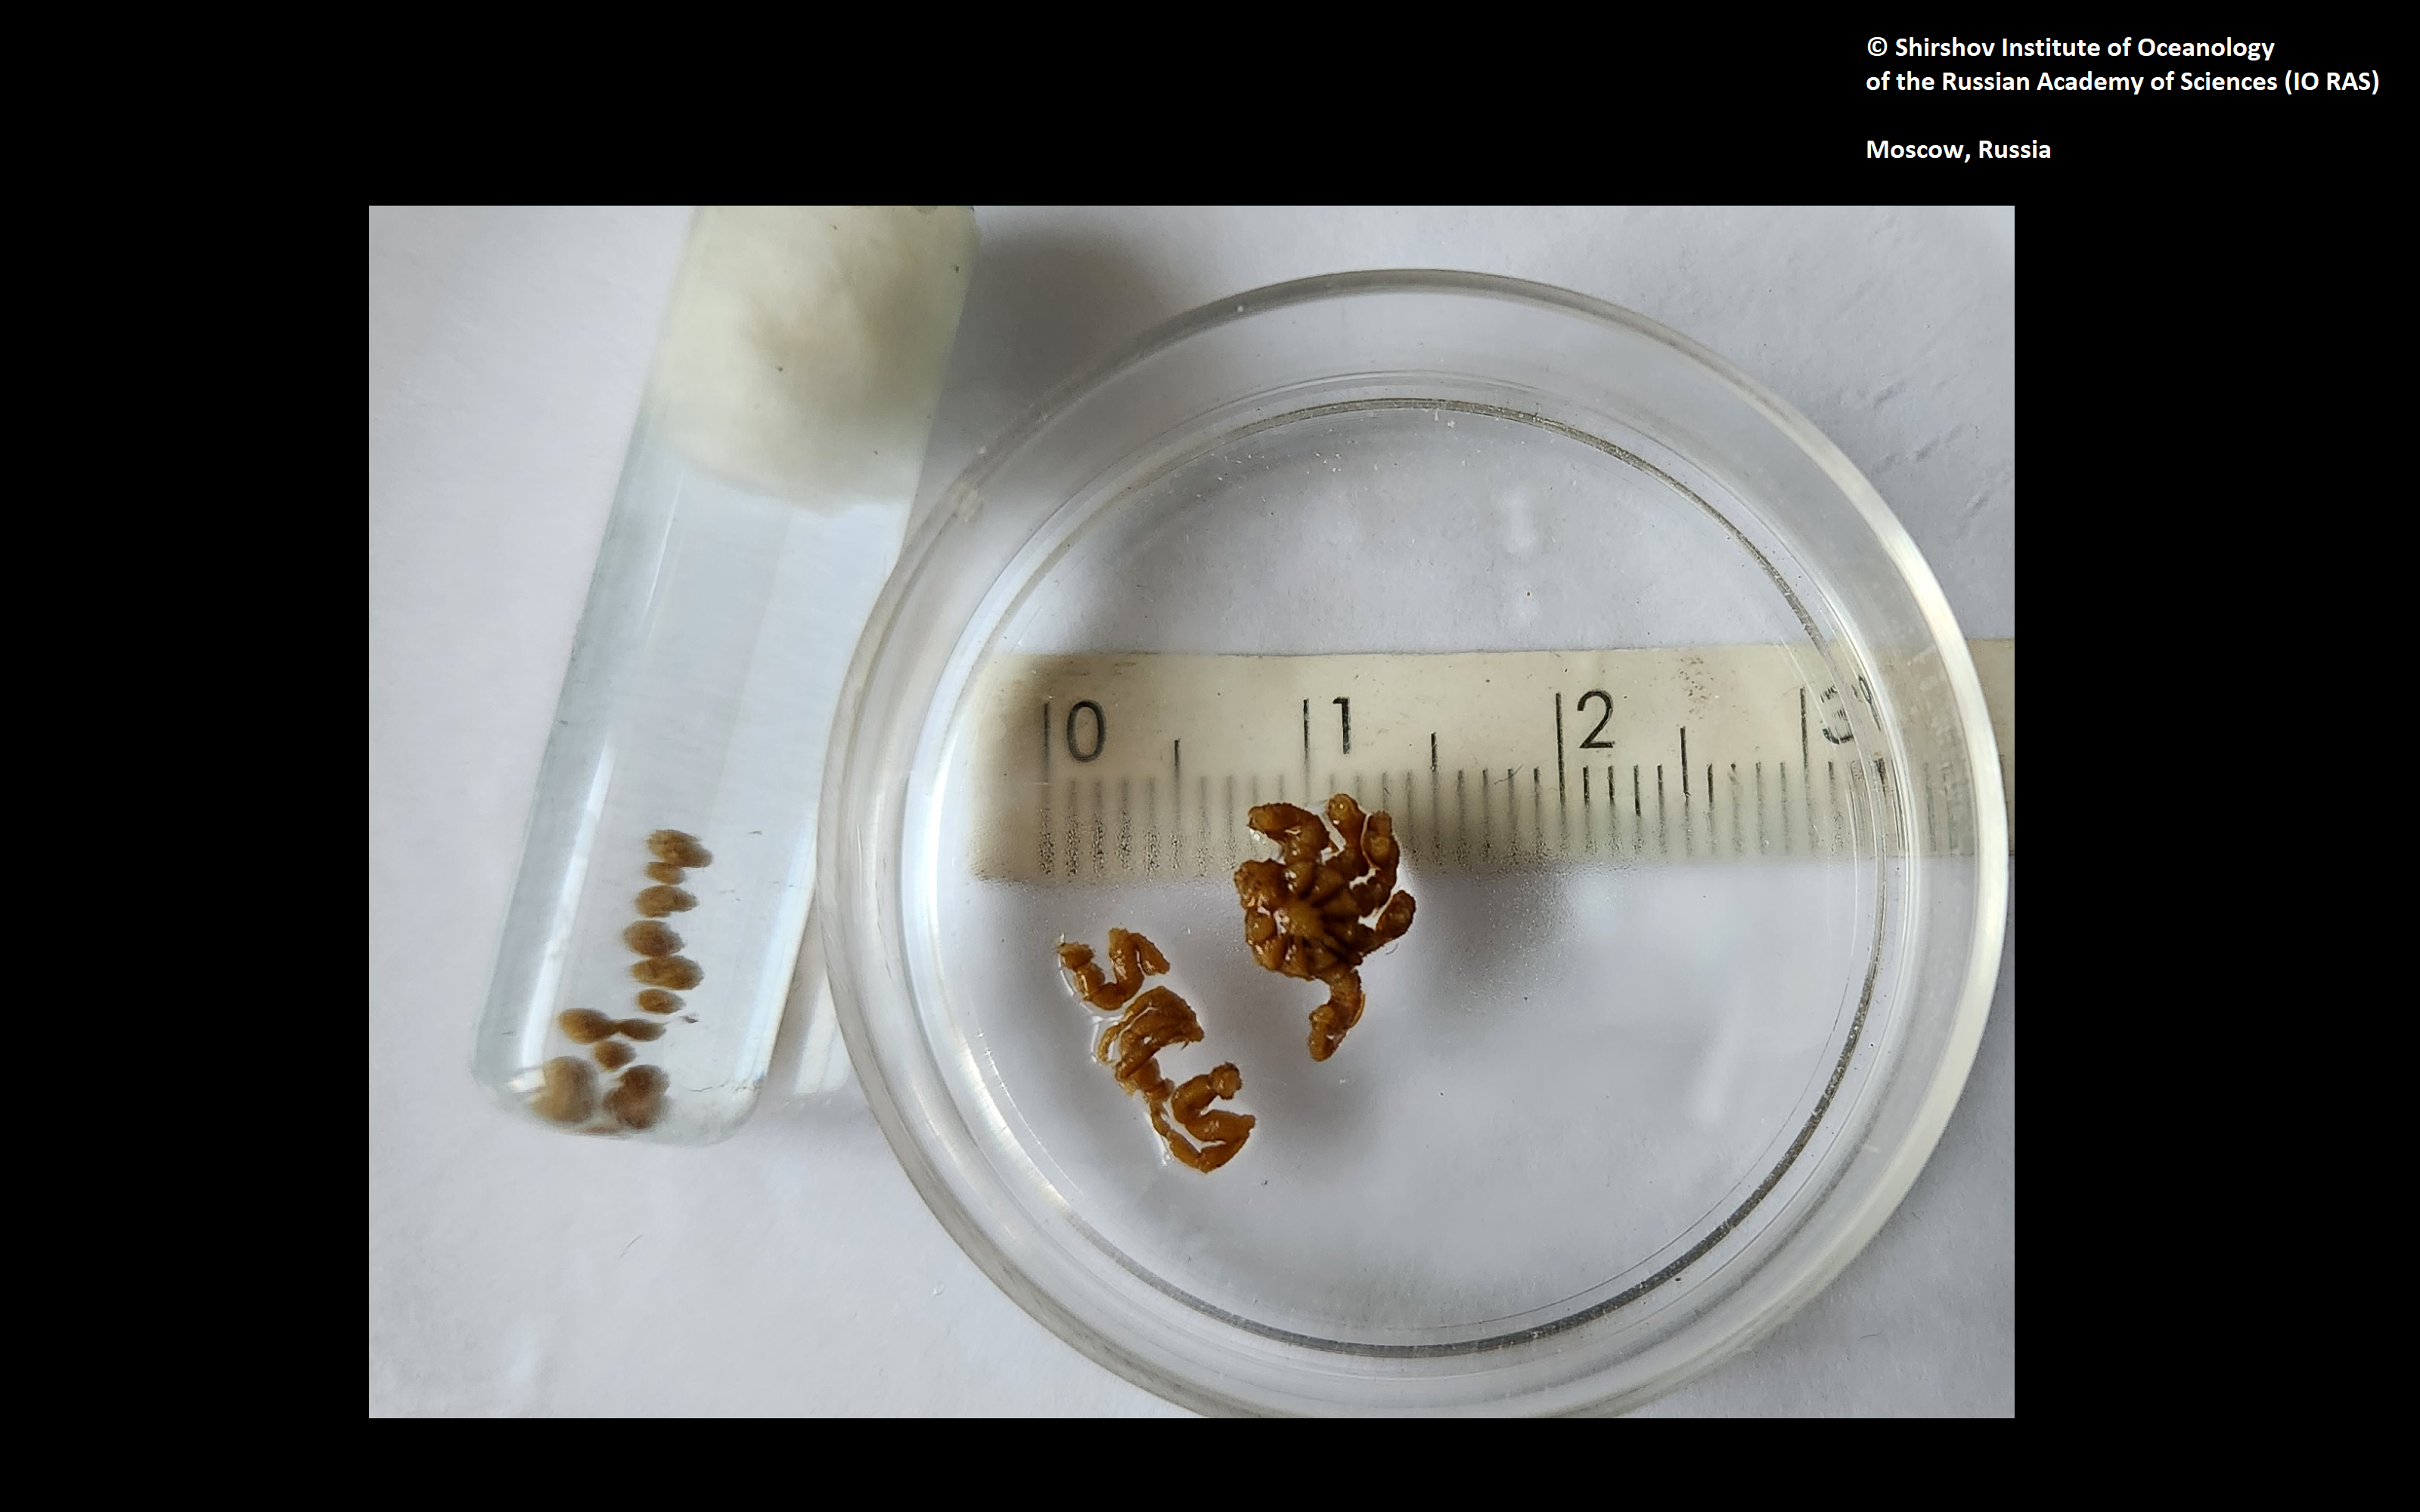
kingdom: Animalia
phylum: Arthropoda
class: Pycnogonida
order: Pantopoda
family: Ammotheidae
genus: Achelia
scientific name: Achelia euryfrontalis
